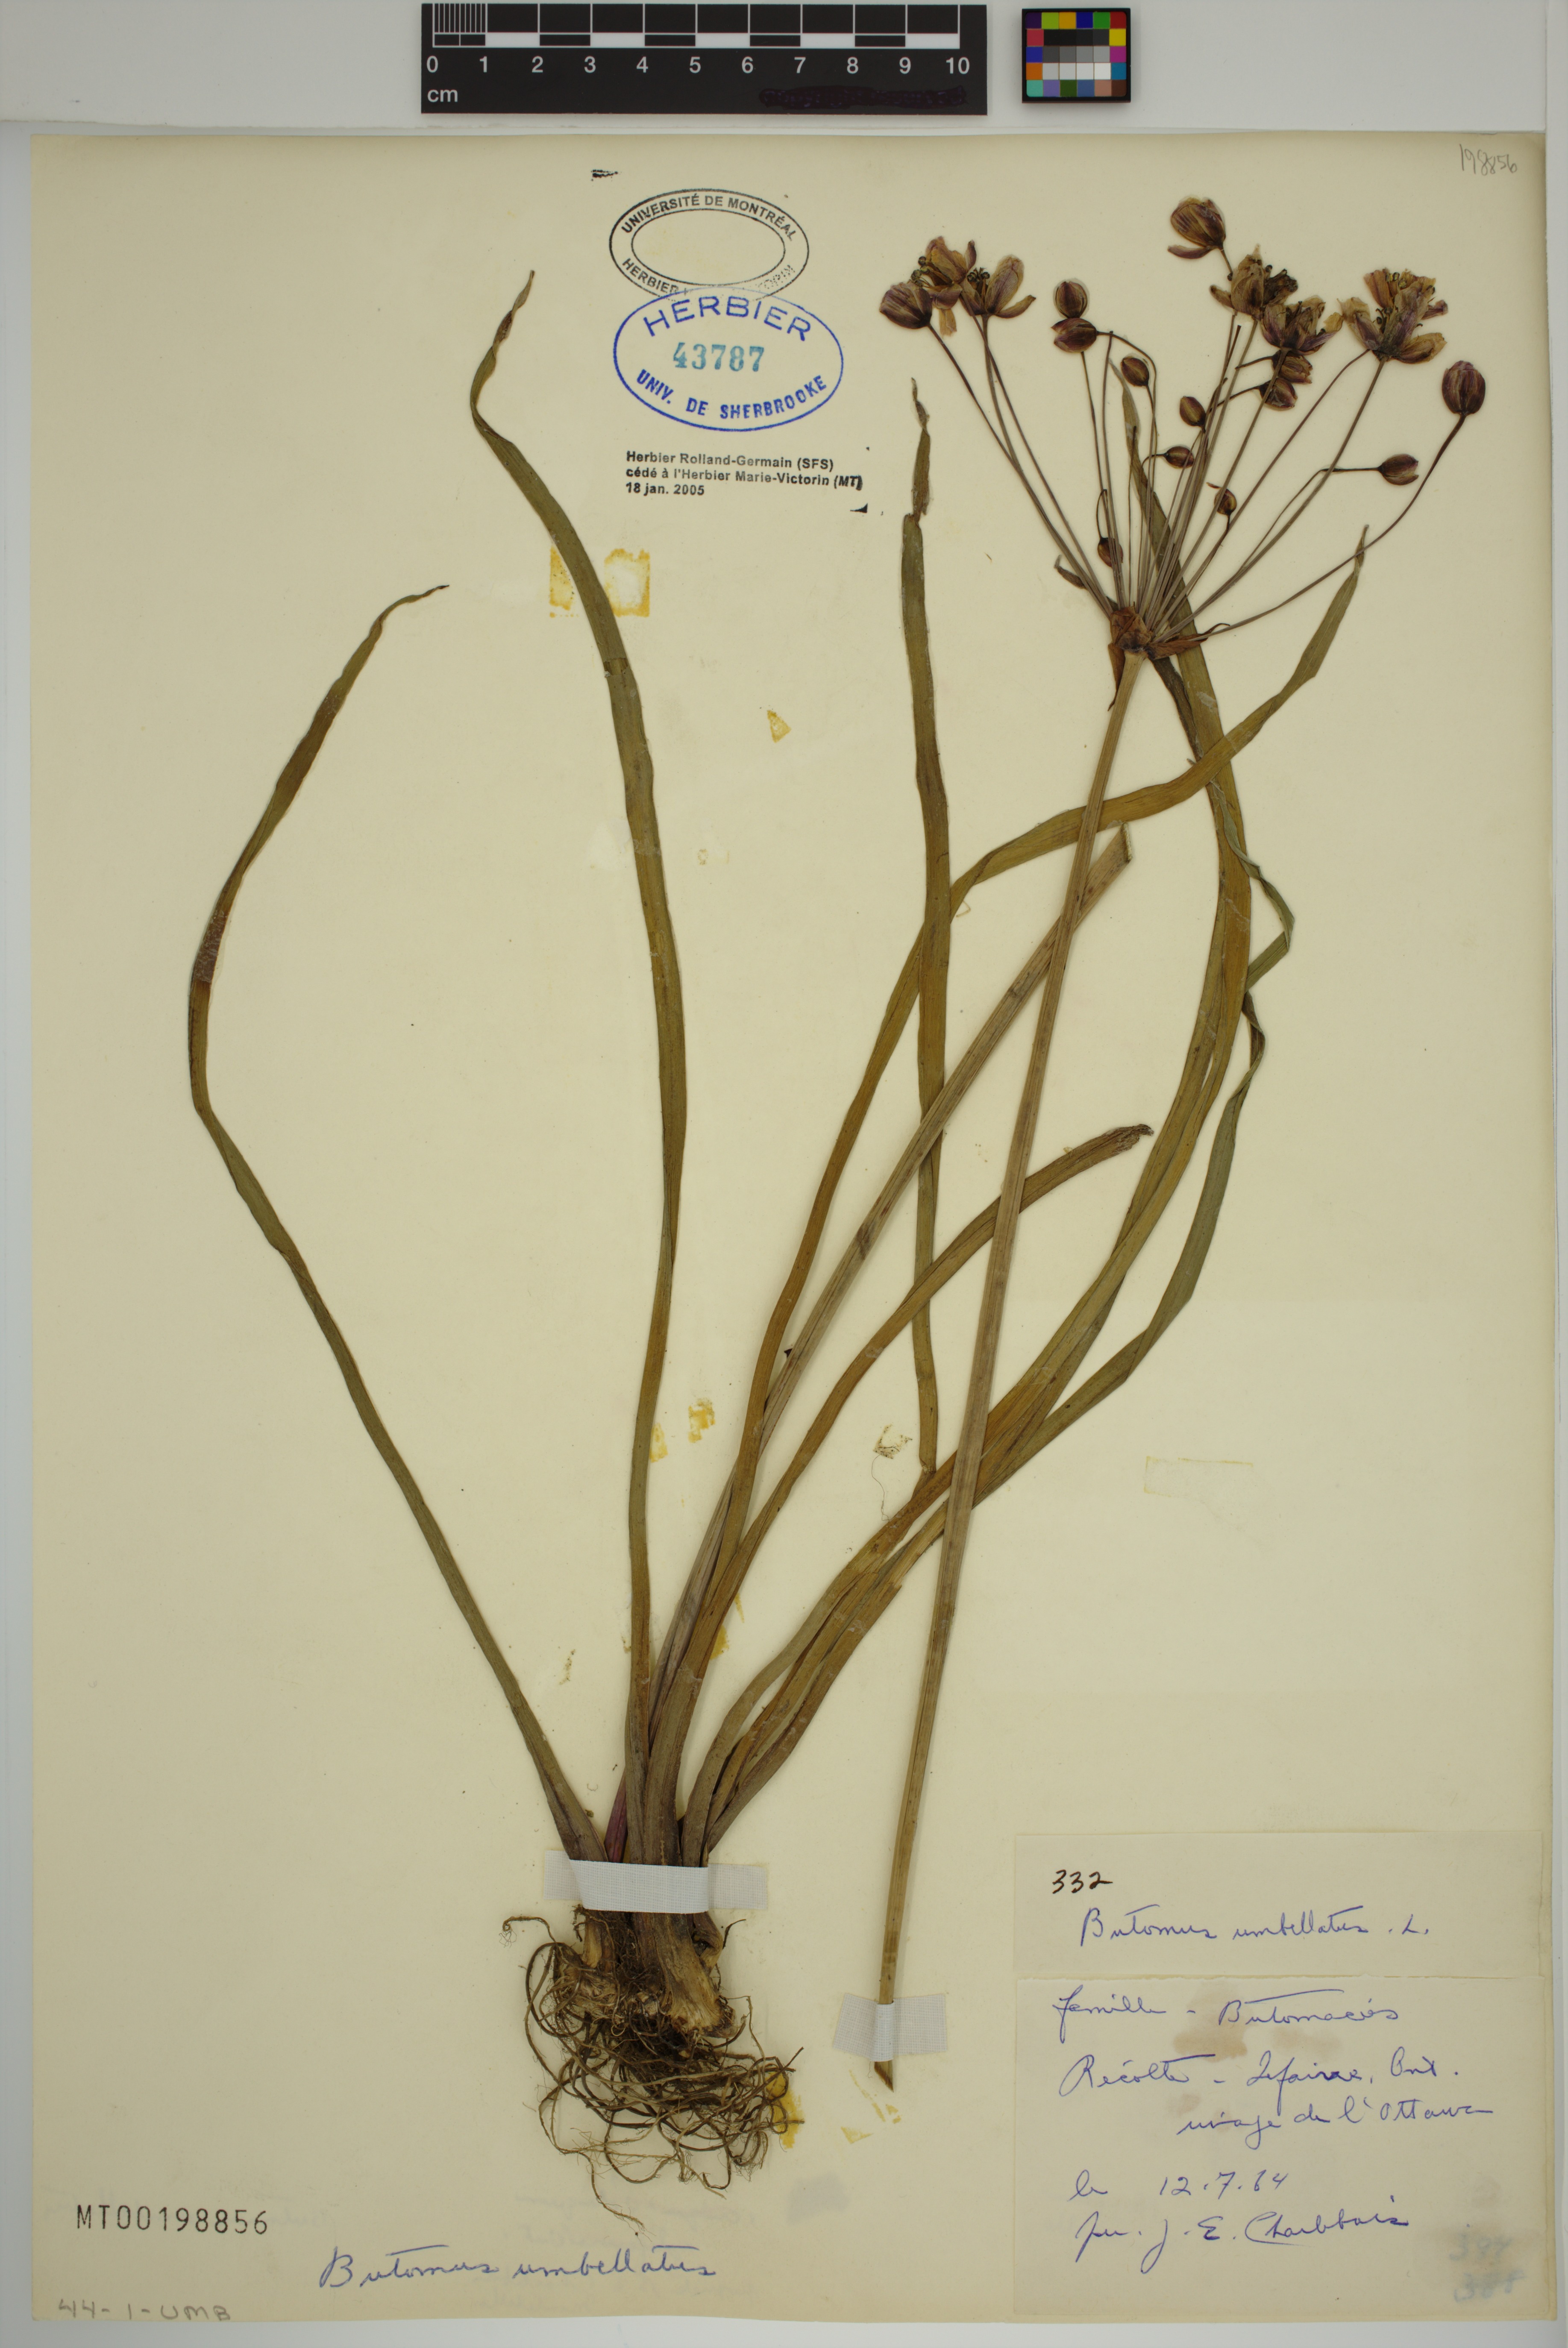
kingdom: Plantae
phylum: Tracheophyta
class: Liliopsida
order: Alismatales
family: Butomaceae
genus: Butomus
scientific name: Butomus umbellatus
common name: Flowering-rush
